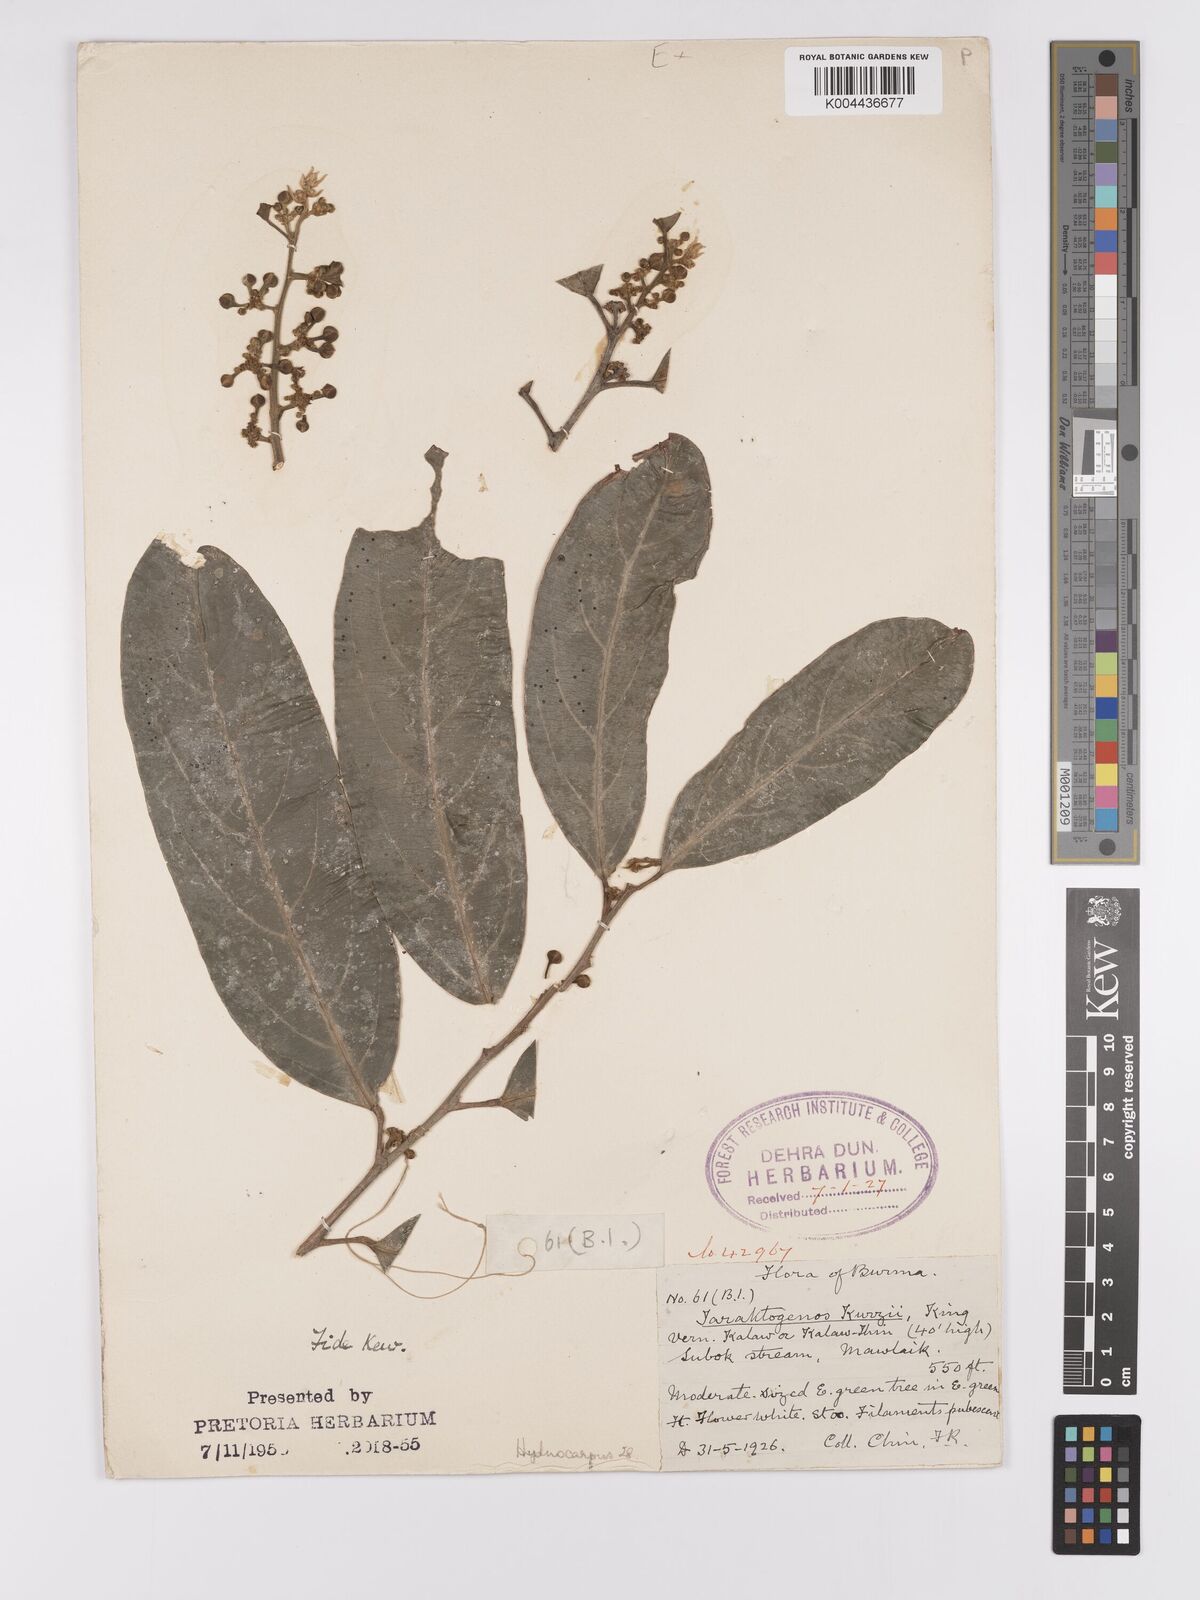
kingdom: Plantae
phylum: Tracheophyta
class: Magnoliopsida
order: Malpighiales
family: Achariaceae
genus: Hydnocarpus
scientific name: Hydnocarpus kurzii
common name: Chaulmoogra
